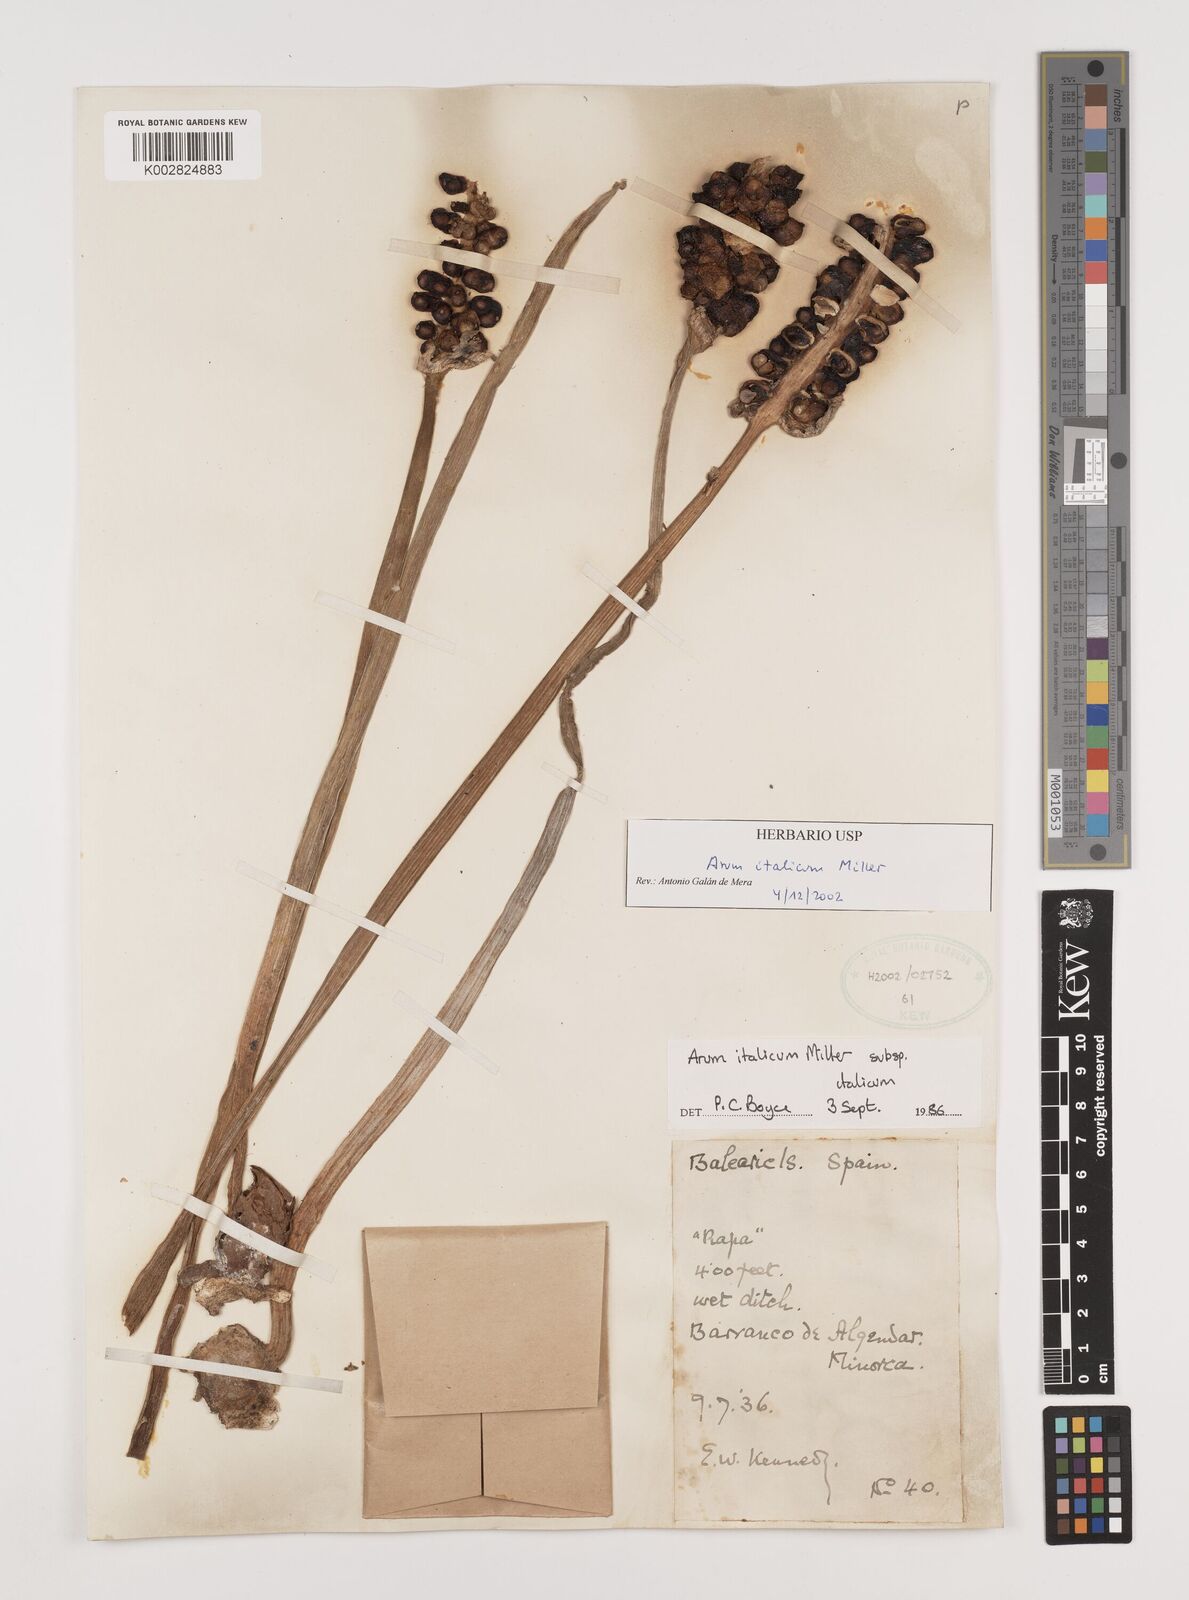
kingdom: Plantae
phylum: Tracheophyta
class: Liliopsida
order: Alismatales
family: Araceae
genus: Arum
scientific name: Arum italicum
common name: Italian lords-and-ladies
